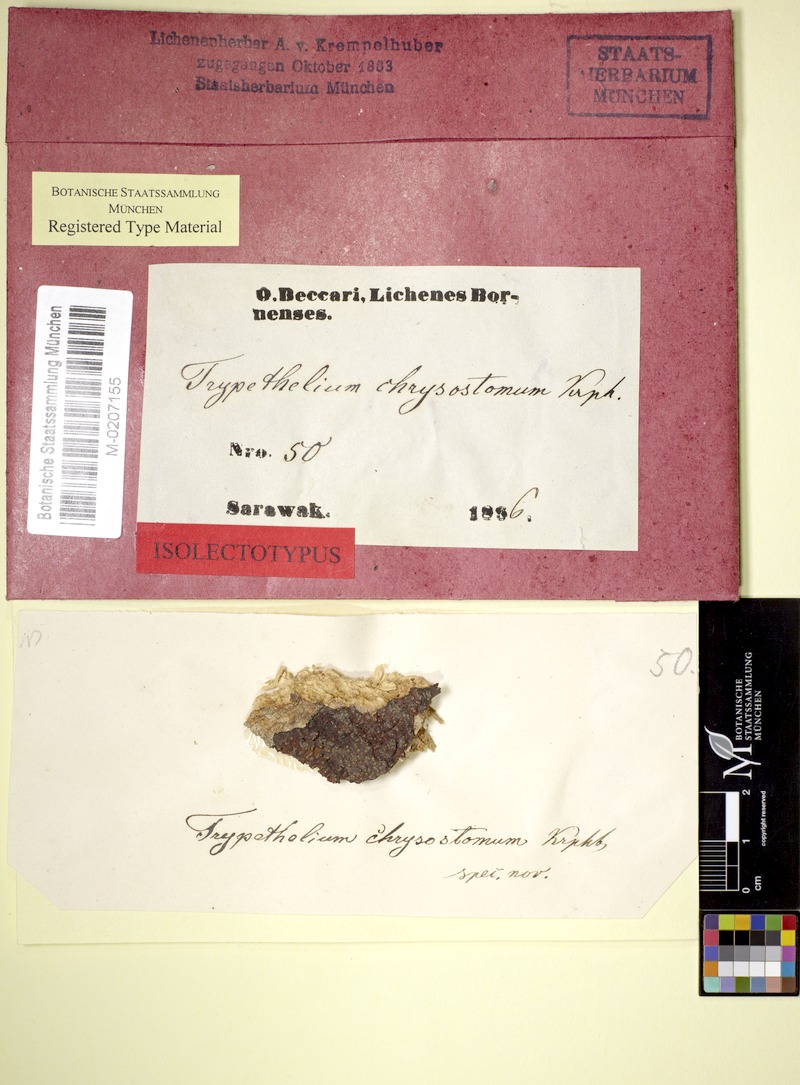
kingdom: Fungi
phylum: Ascomycota
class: Dothideomycetes
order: Trypetheliales
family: Trypetheliaceae
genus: Astrothelium
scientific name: Astrothelium cinnamomeum
